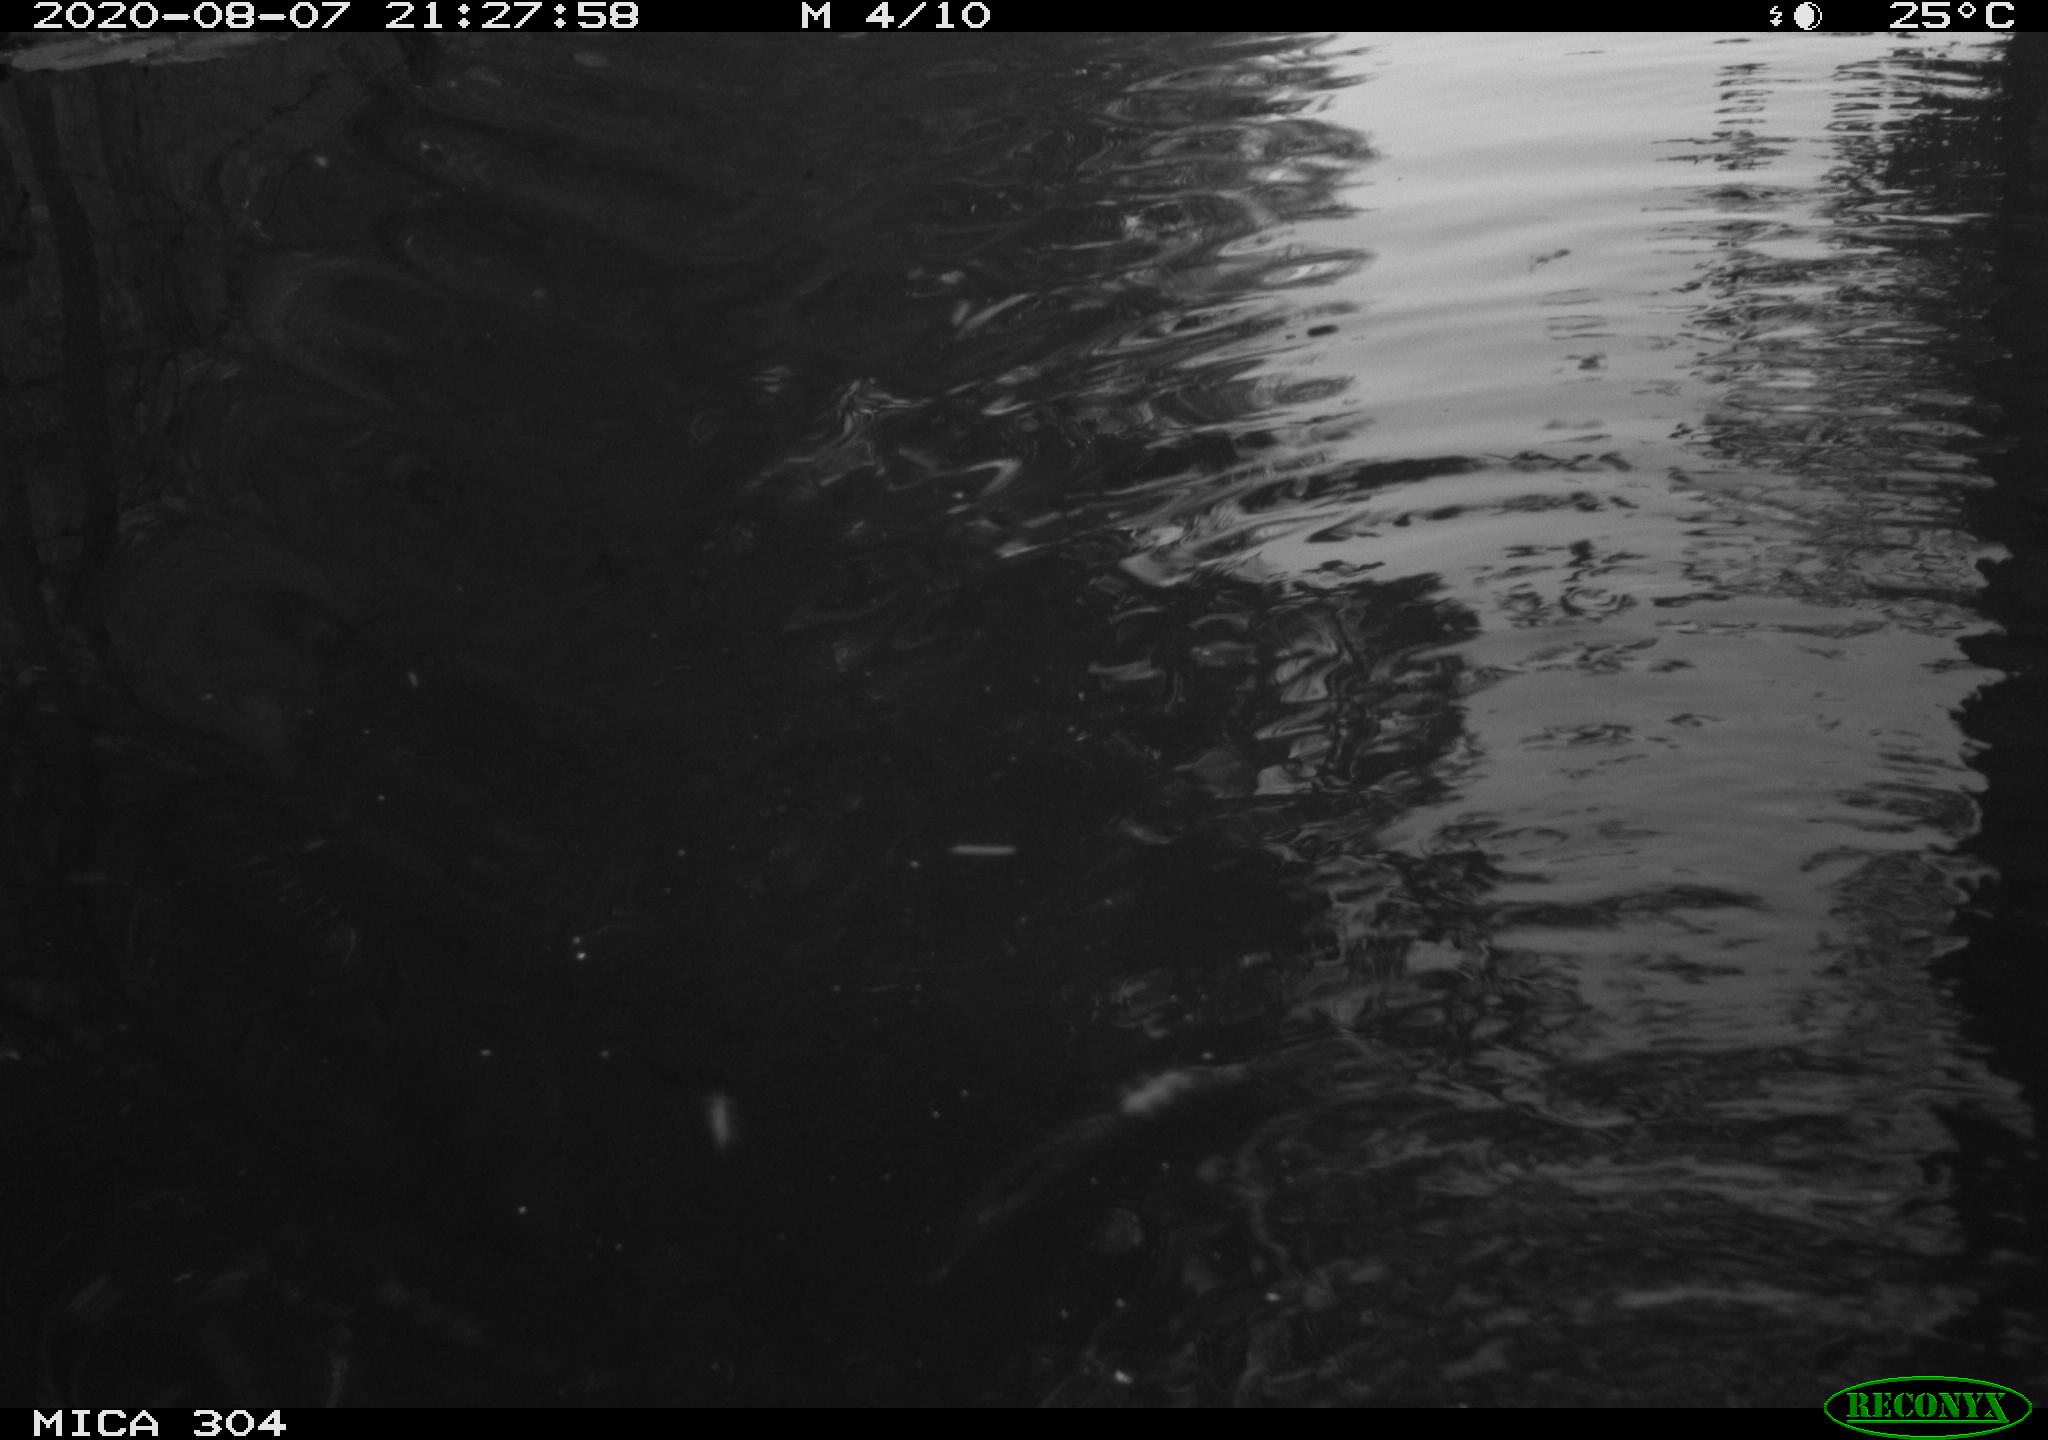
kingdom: Animalia
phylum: Chordata
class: Mammalia
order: Rodentia
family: Cricetidae
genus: Ondatra
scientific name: Ondatra zibethicus
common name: Muskrat
